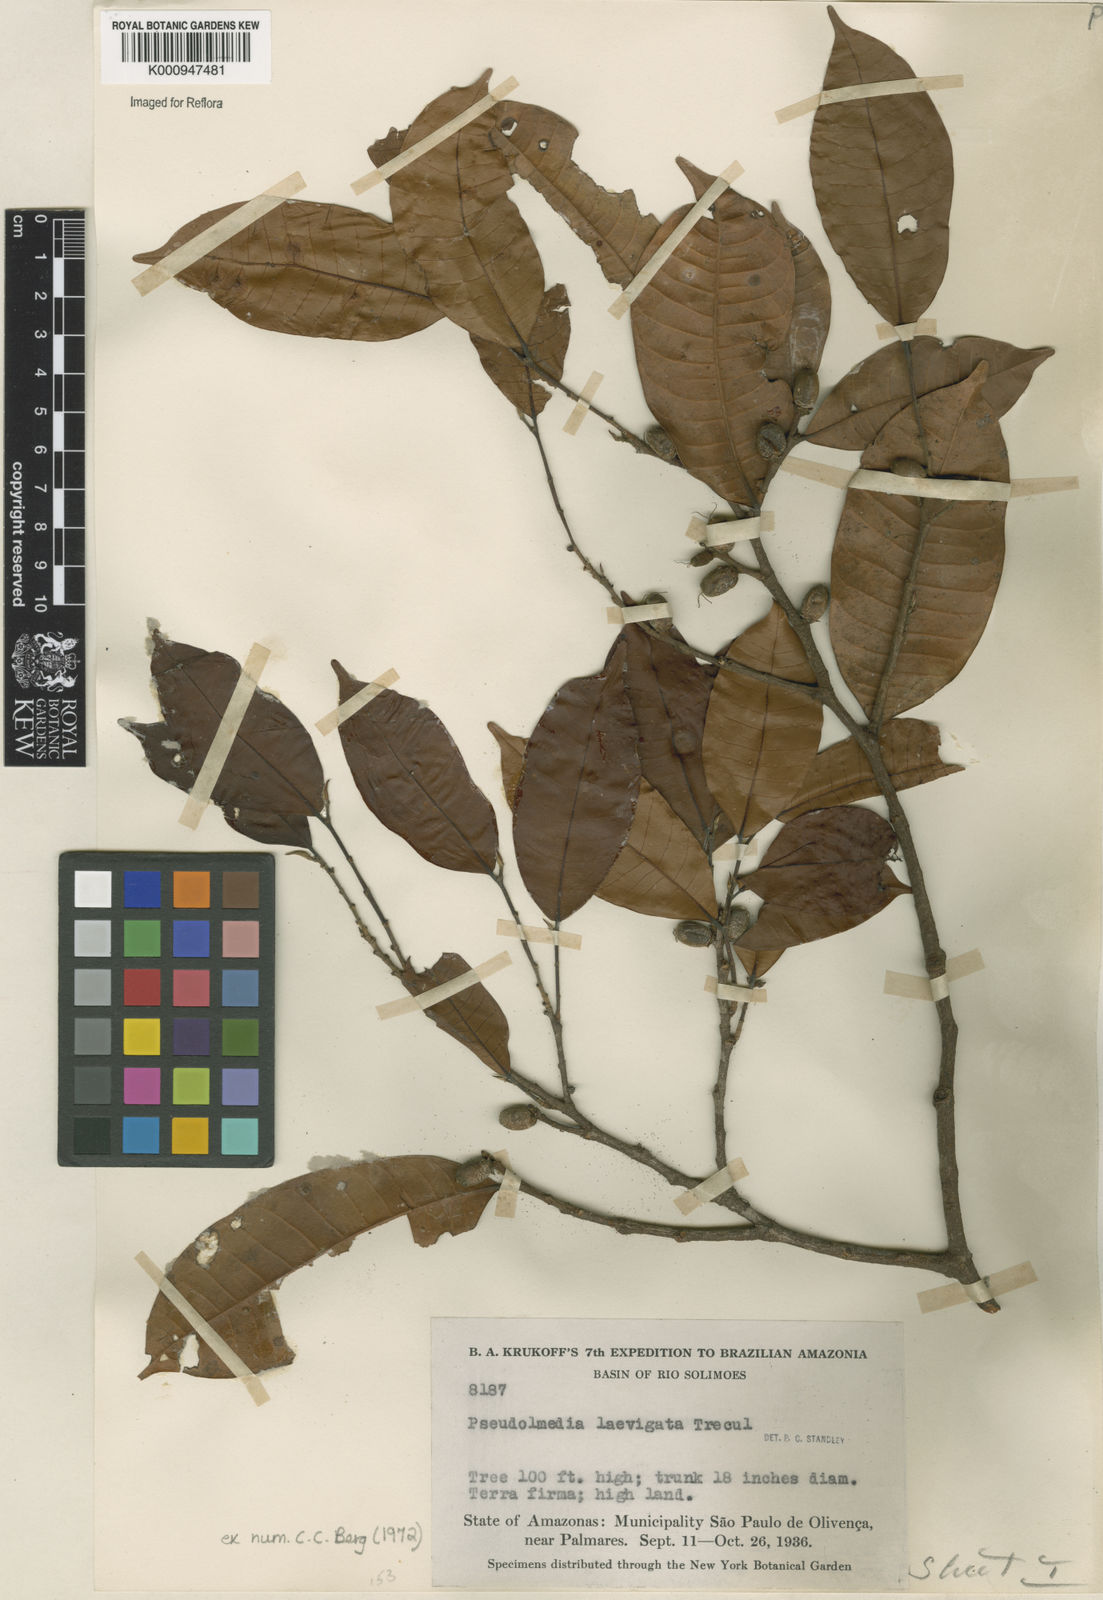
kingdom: Plantae
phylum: Tracheophyta
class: Magnoliopsida
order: Rosales
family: Moraceae
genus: Pseudolmedia
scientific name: Pseudolmedia
